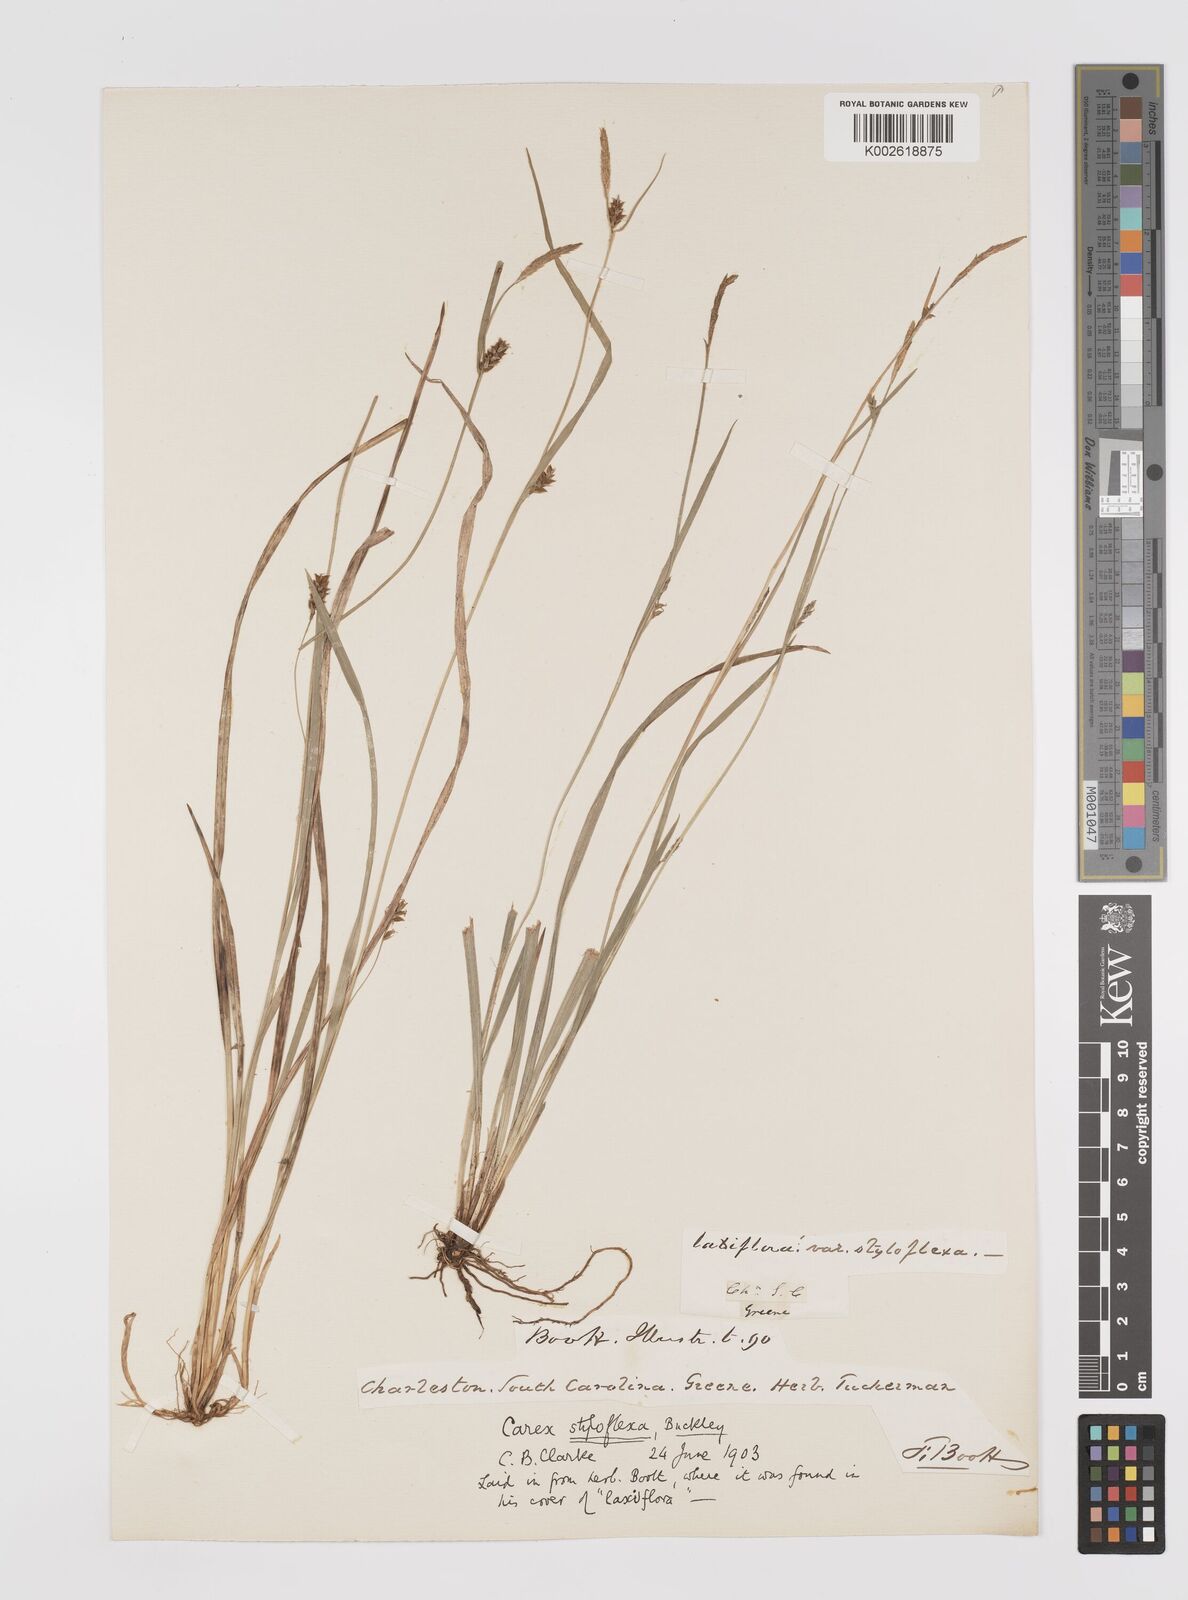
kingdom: Plantae
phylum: Tracheophyta
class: Liliopsida
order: Poales
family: Cyperaceae
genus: Carex
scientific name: Carex styloflexa
